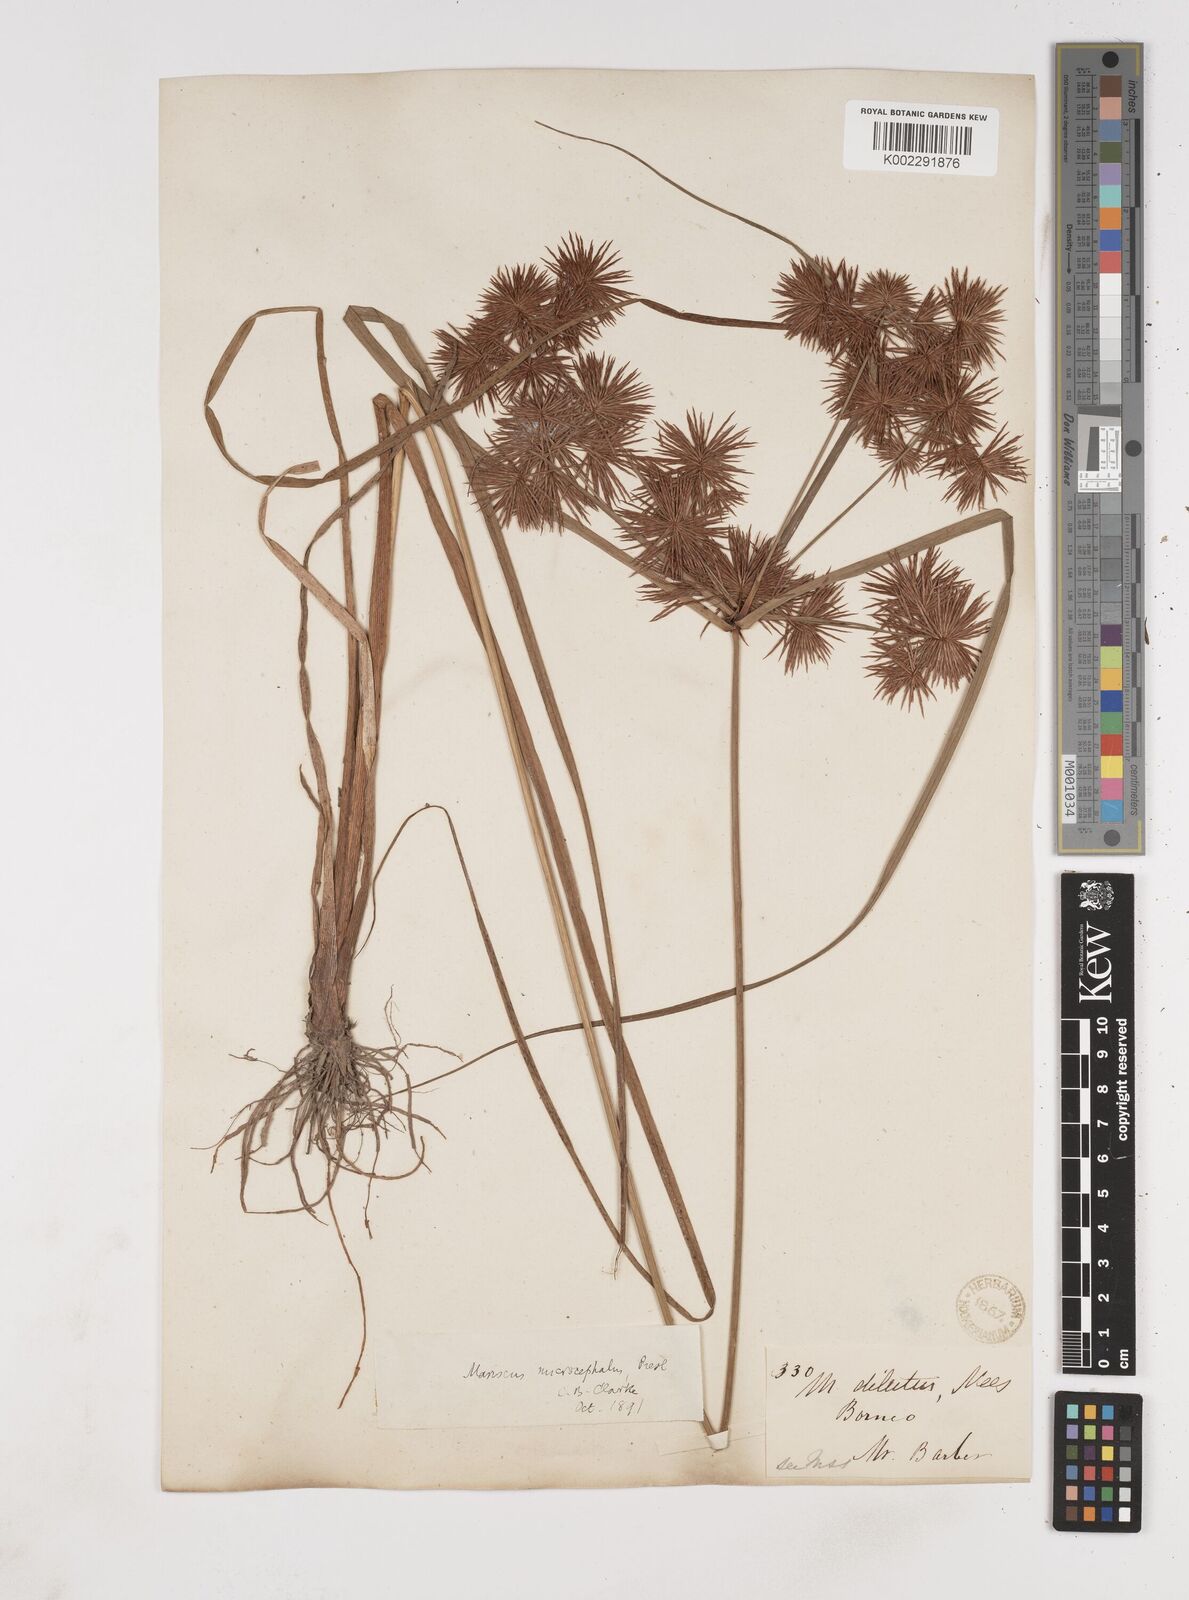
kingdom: Plantae
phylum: Tracheophyta
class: Liliopsida
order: Poales
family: Cyperaceae
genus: Cyperus
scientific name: Cyperus compactus
